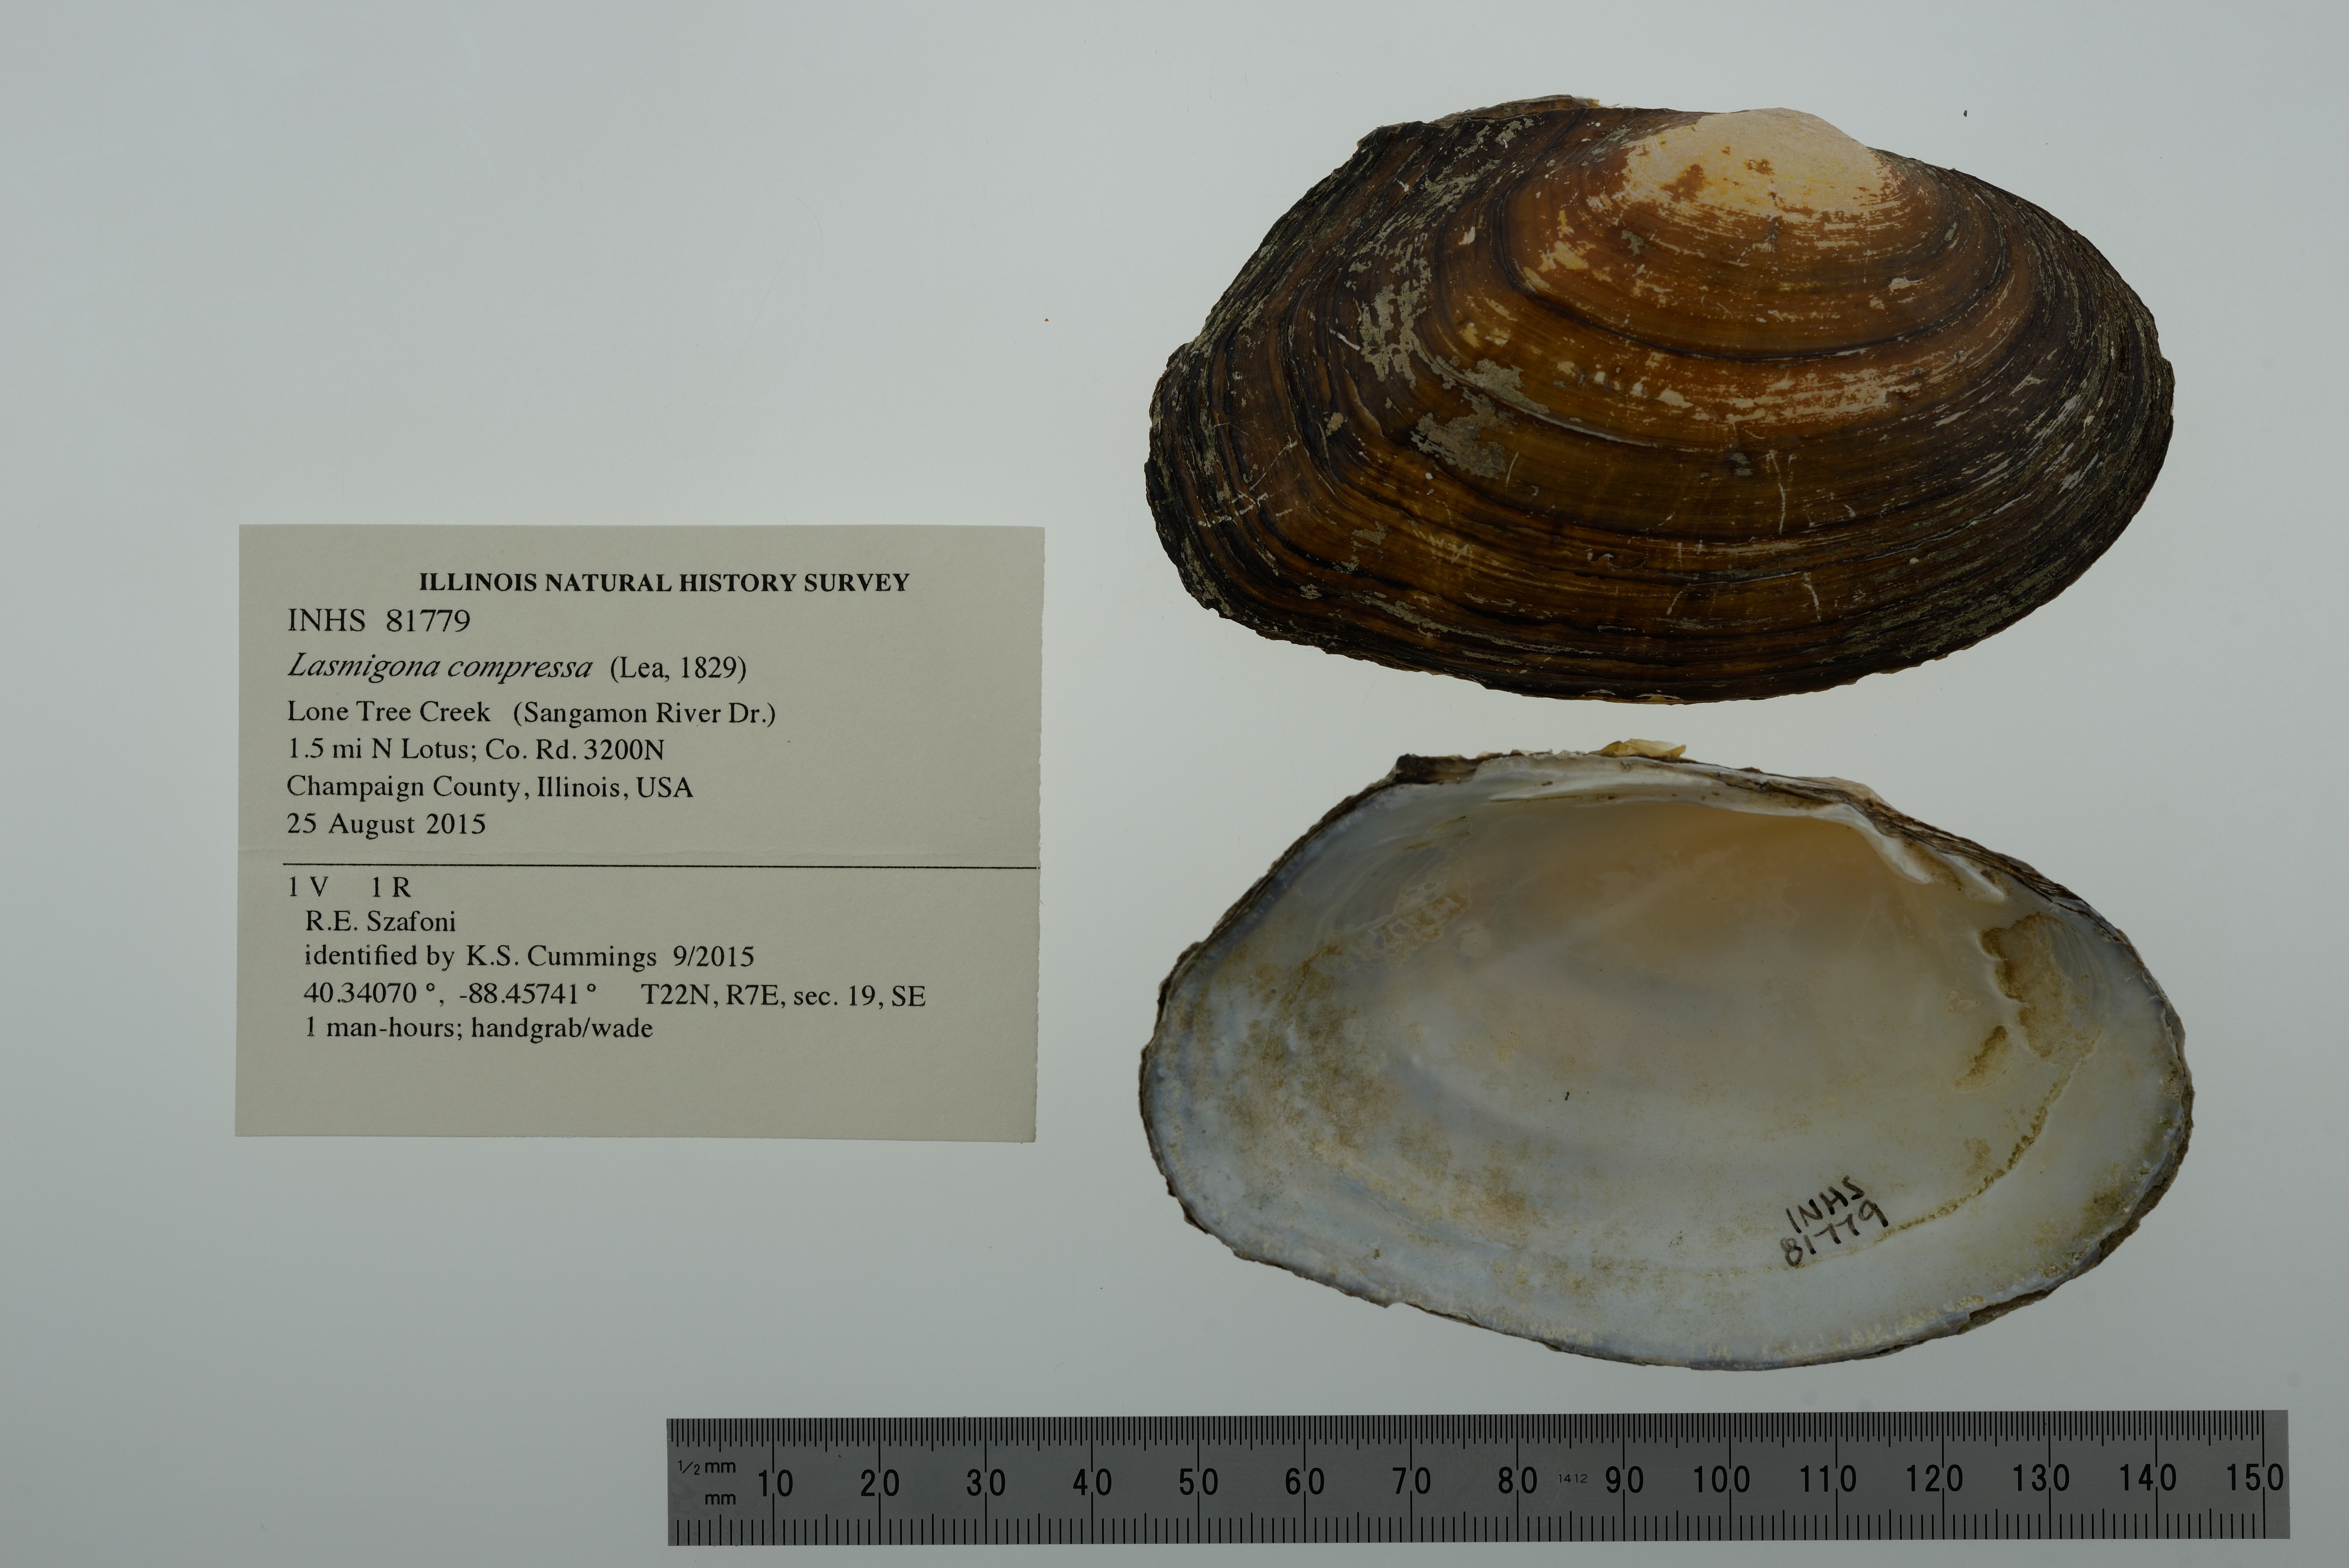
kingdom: Animalia
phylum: Mollusca
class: Bivalvia
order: Unionida
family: Unionidae
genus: Lasmigona
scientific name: Lasmigona compressa
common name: Creek heelsplitter
